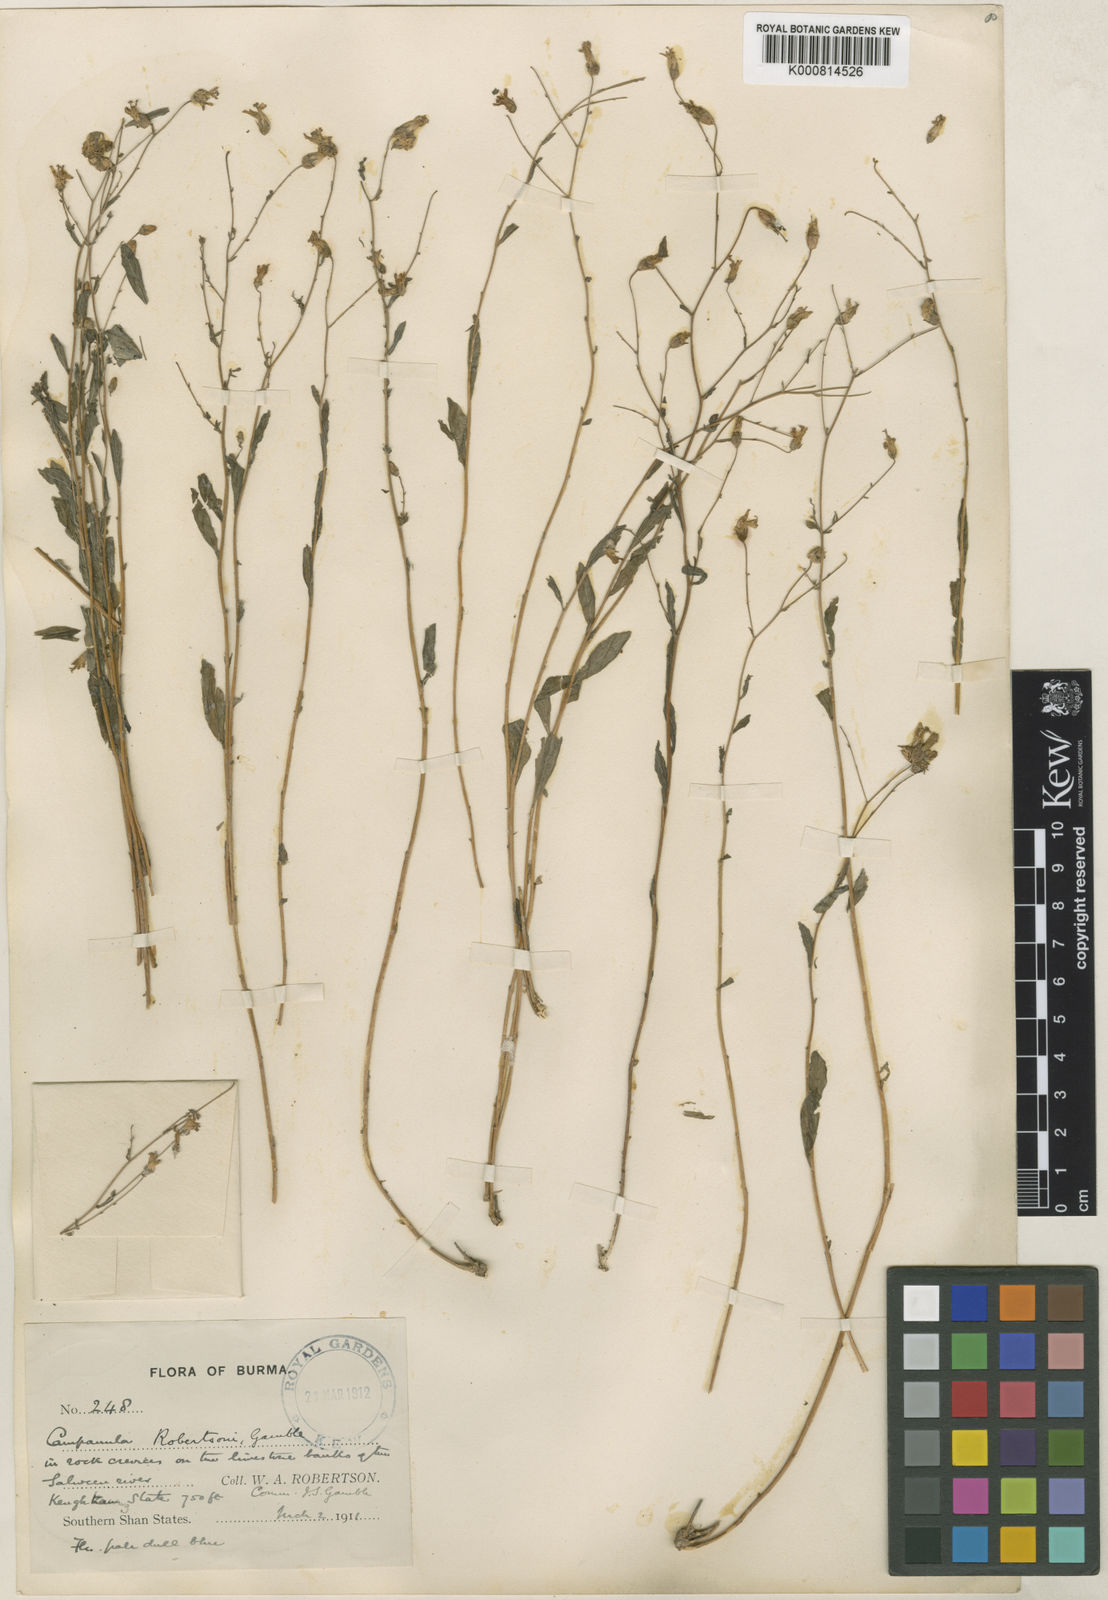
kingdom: Plantae
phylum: Tracheophyta
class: Magnoliopsida
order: Asterales
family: Campanulaceae
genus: Campanula
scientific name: Campanula robertsonii
